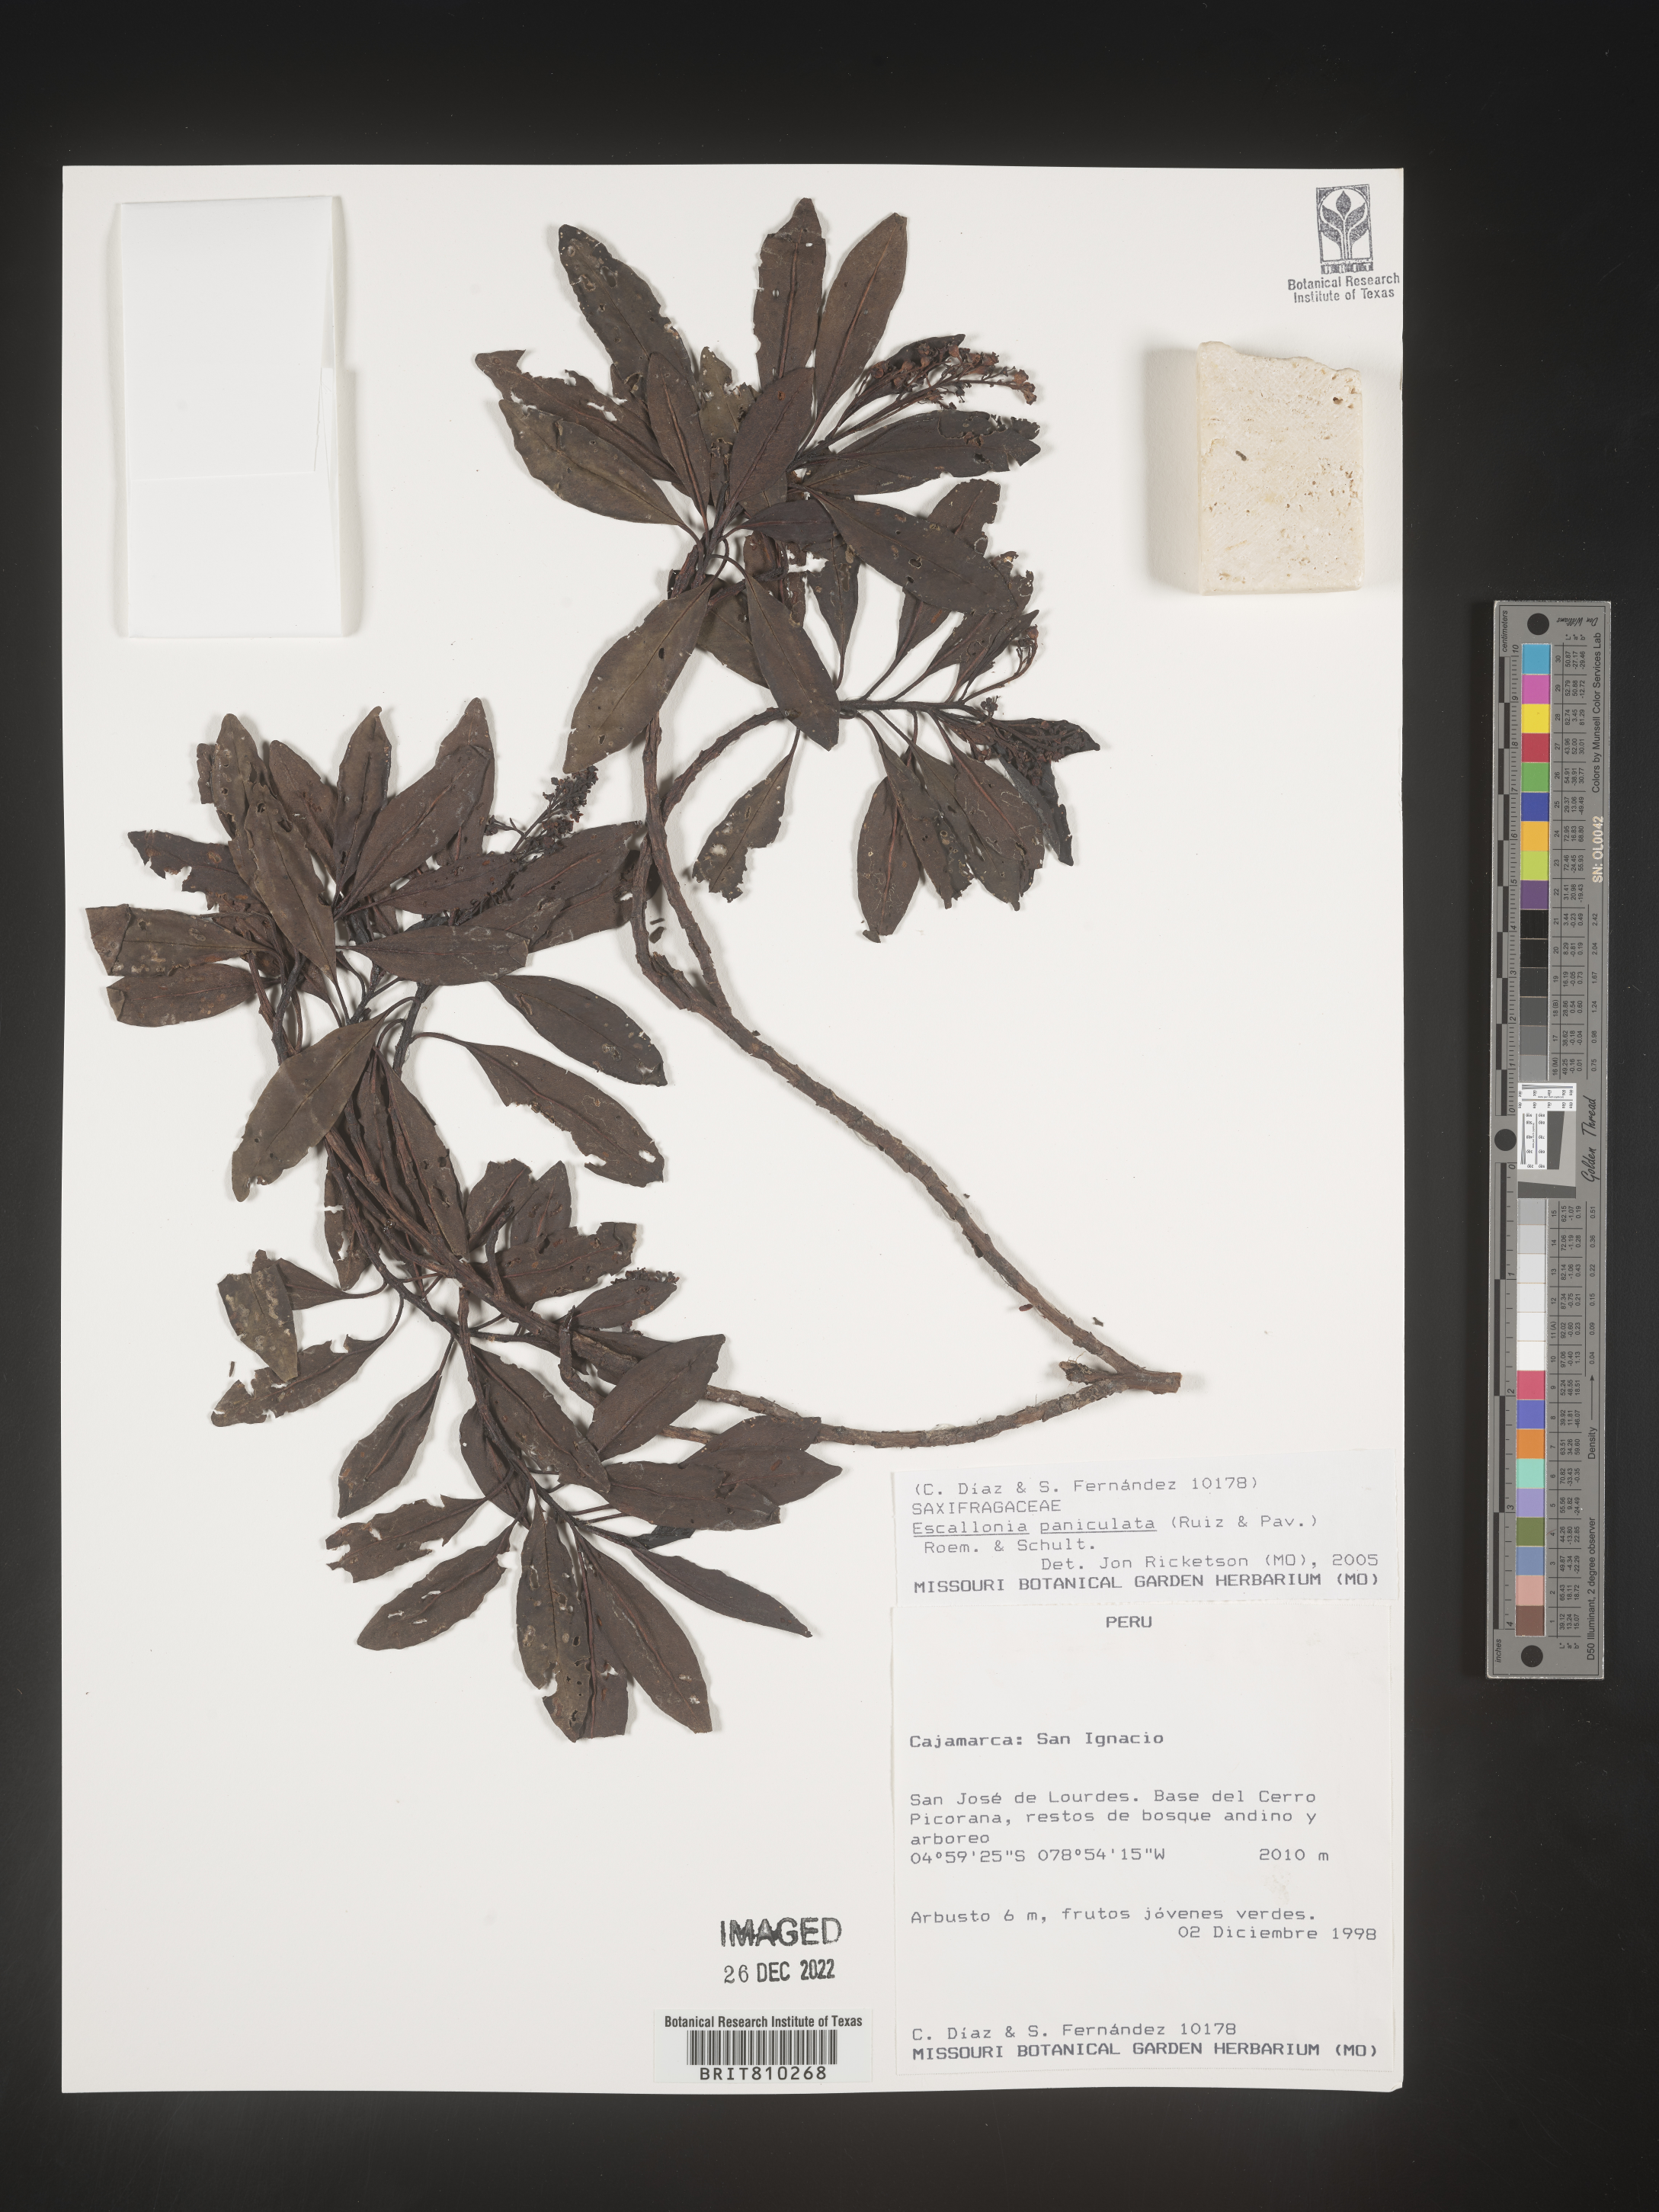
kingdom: Plantae
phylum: Tracheophyta
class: Magnoliopsida
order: Escalloniales
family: Escalloniaceae
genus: Escallonia
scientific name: Escallonia paniculata
